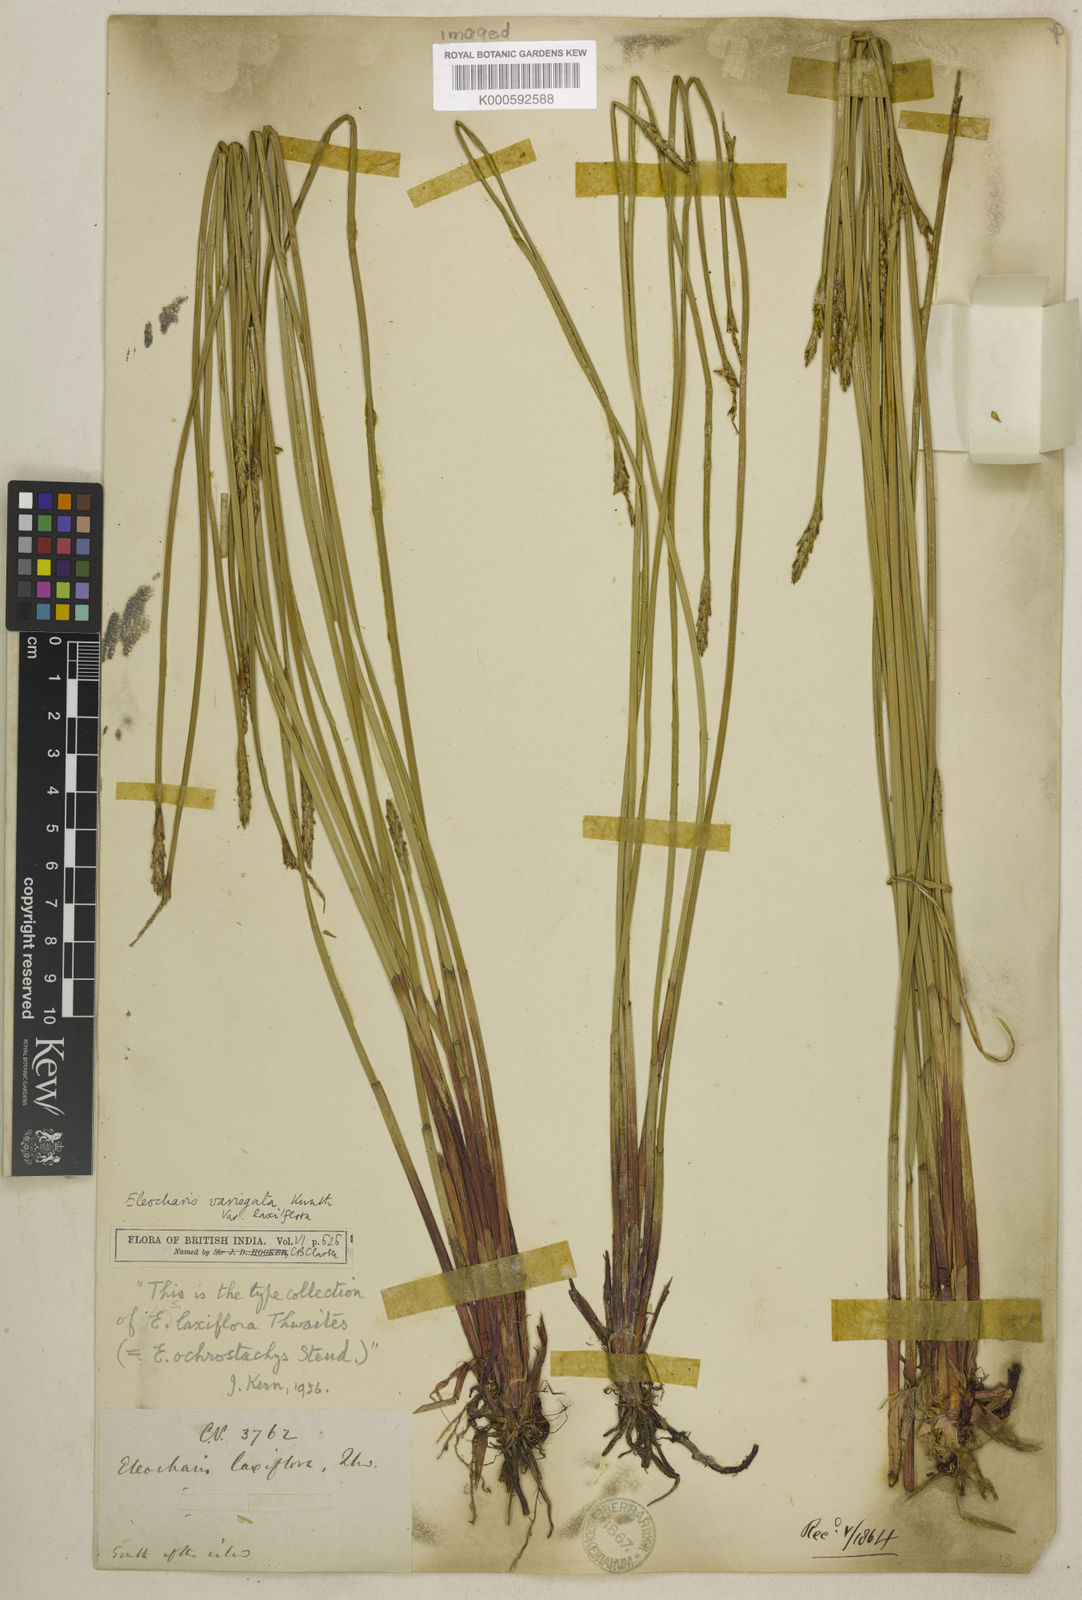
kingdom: Plantae
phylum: Tracheophyta
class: Liliopsida
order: Poales
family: Cyperaceae
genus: Eleocharis
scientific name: Eleocharis ochrostachys
